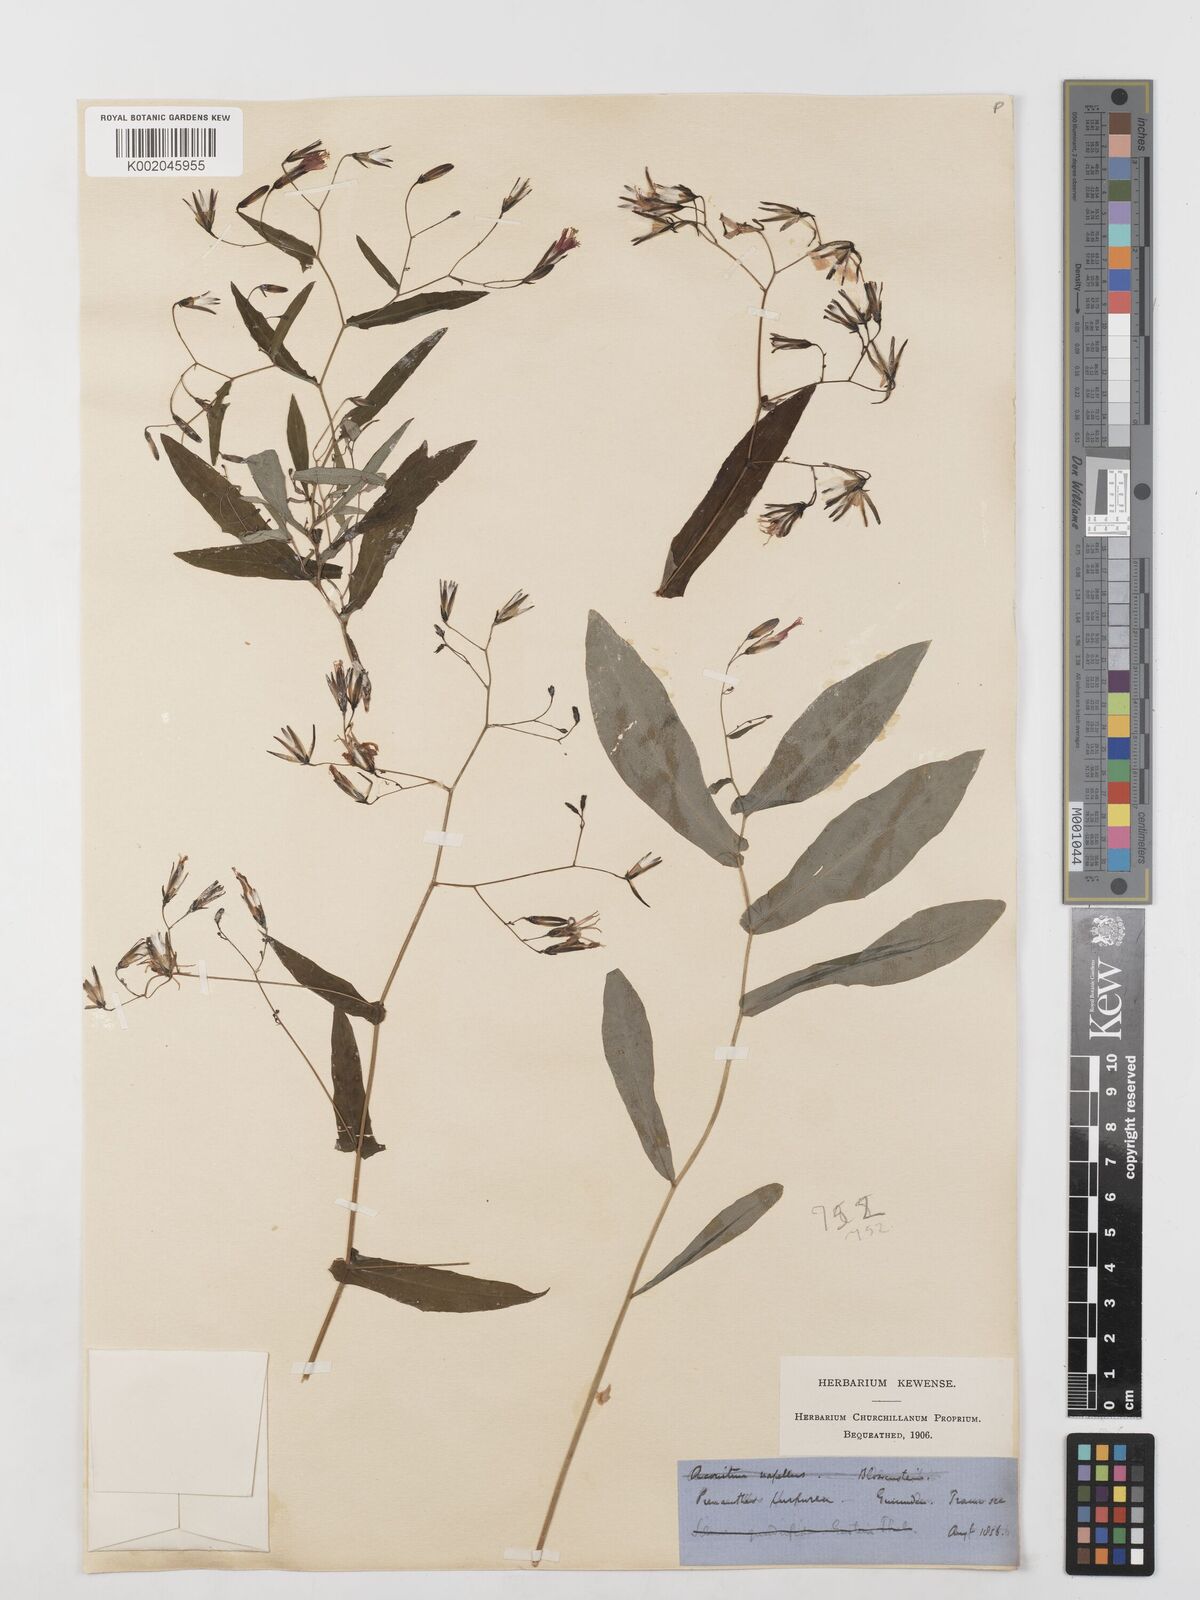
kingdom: Plantae
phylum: Tracheophyta
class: Magnoliopsida
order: Asterales
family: Asteraceae
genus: Prenanthes
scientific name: Prenanthes purpurea
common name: Purple lettuce
